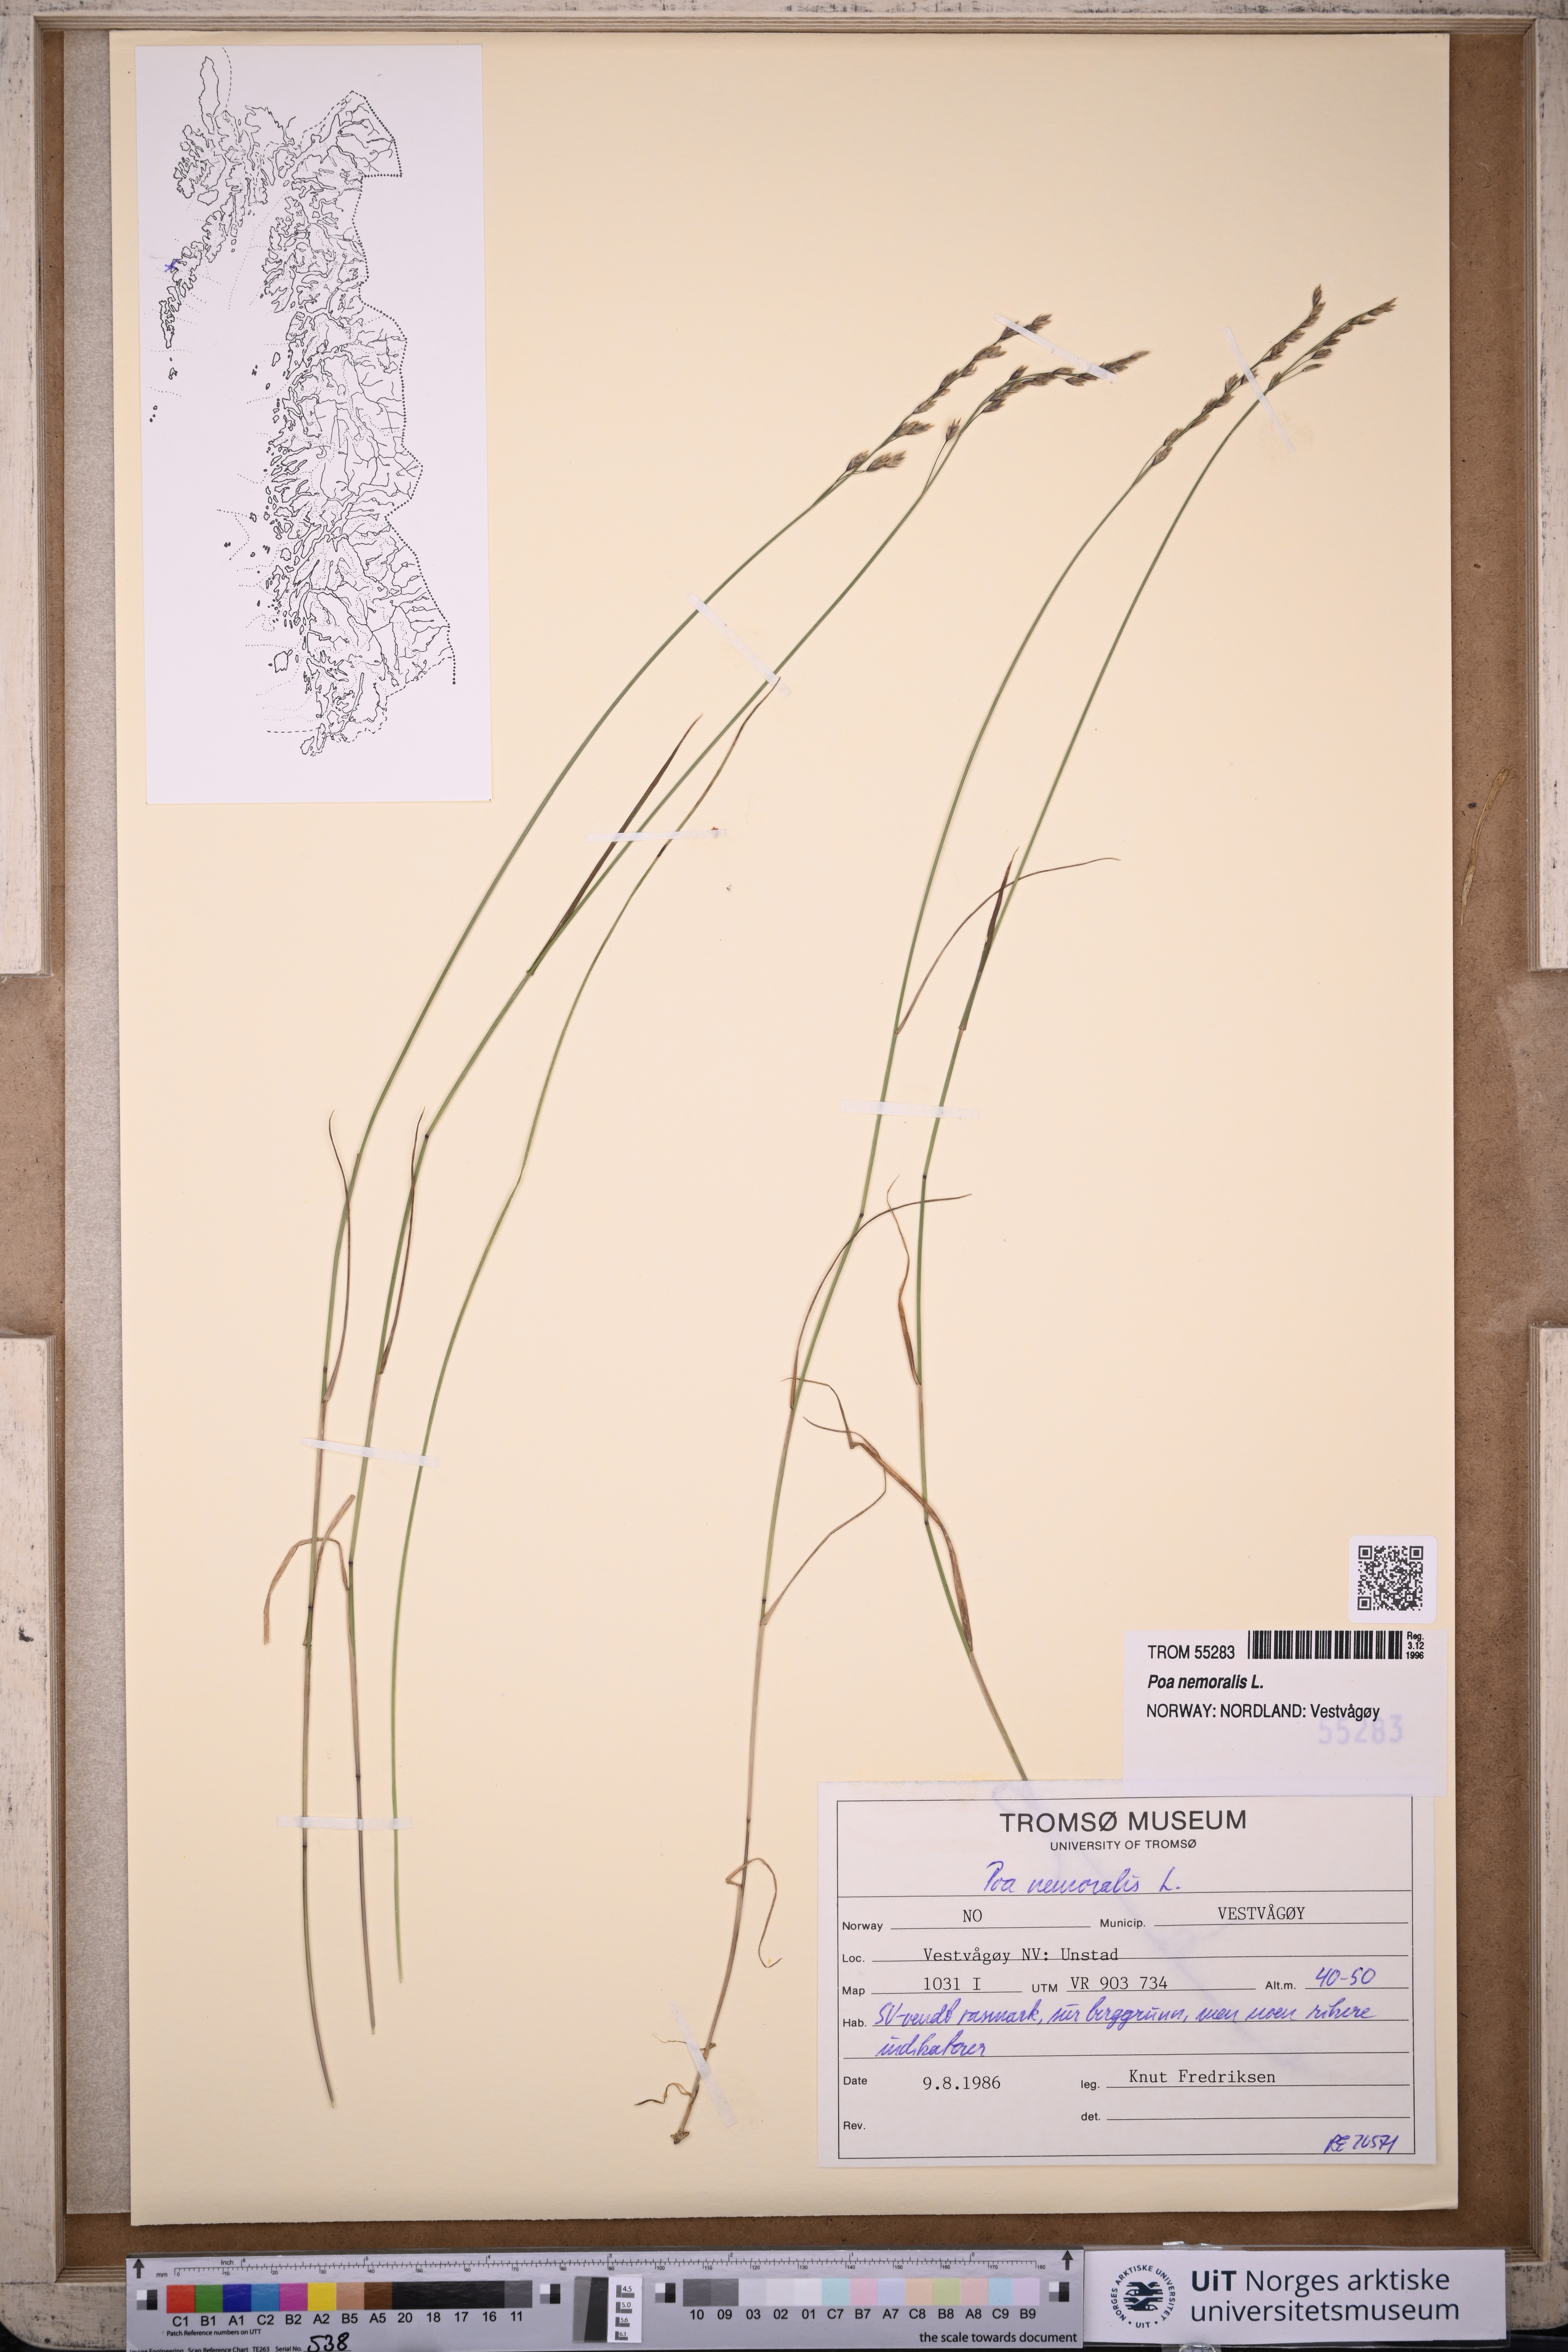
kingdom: Plantae
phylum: Tracheophyta
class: Liliopsida
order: Poales
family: Poaceae
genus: Poa
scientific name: Poa nemoralis
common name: Wood bluegrass
